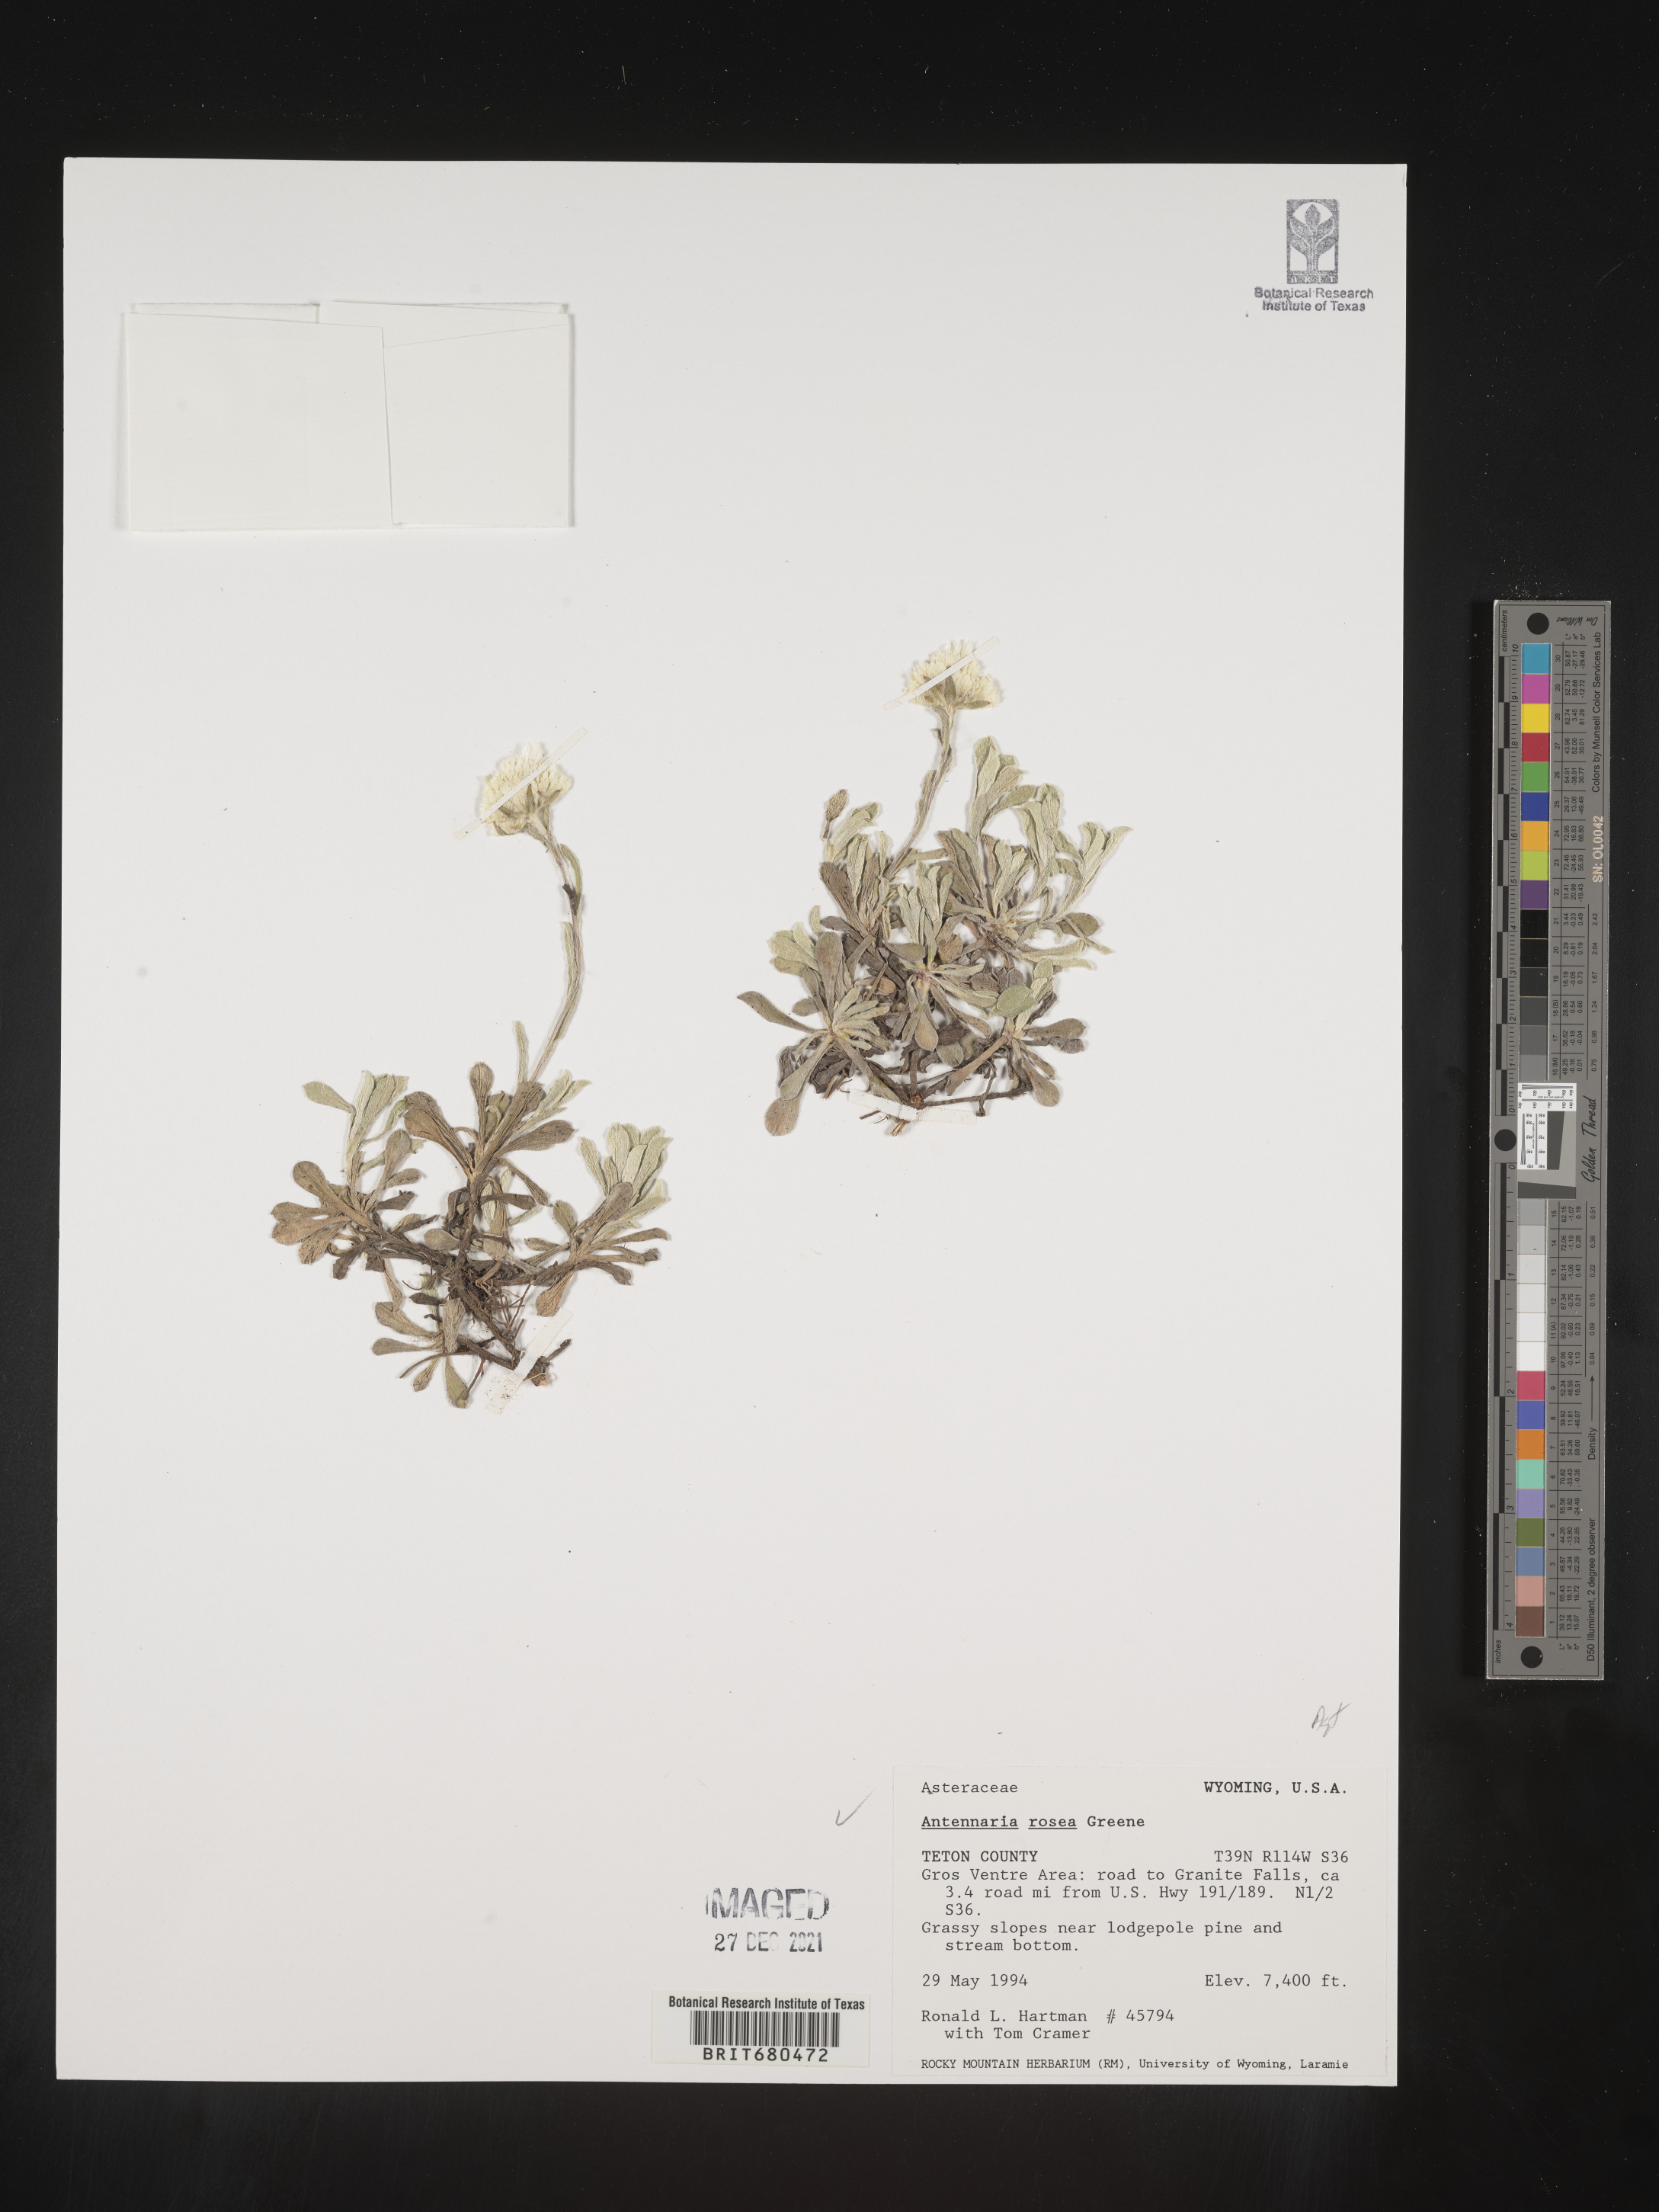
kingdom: Plantae
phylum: Tracheophyta
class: Magnoliopsida
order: Asterales
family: Asteraceae
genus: Antennaria
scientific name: Antennaria rosea
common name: Rosy pussytoes
